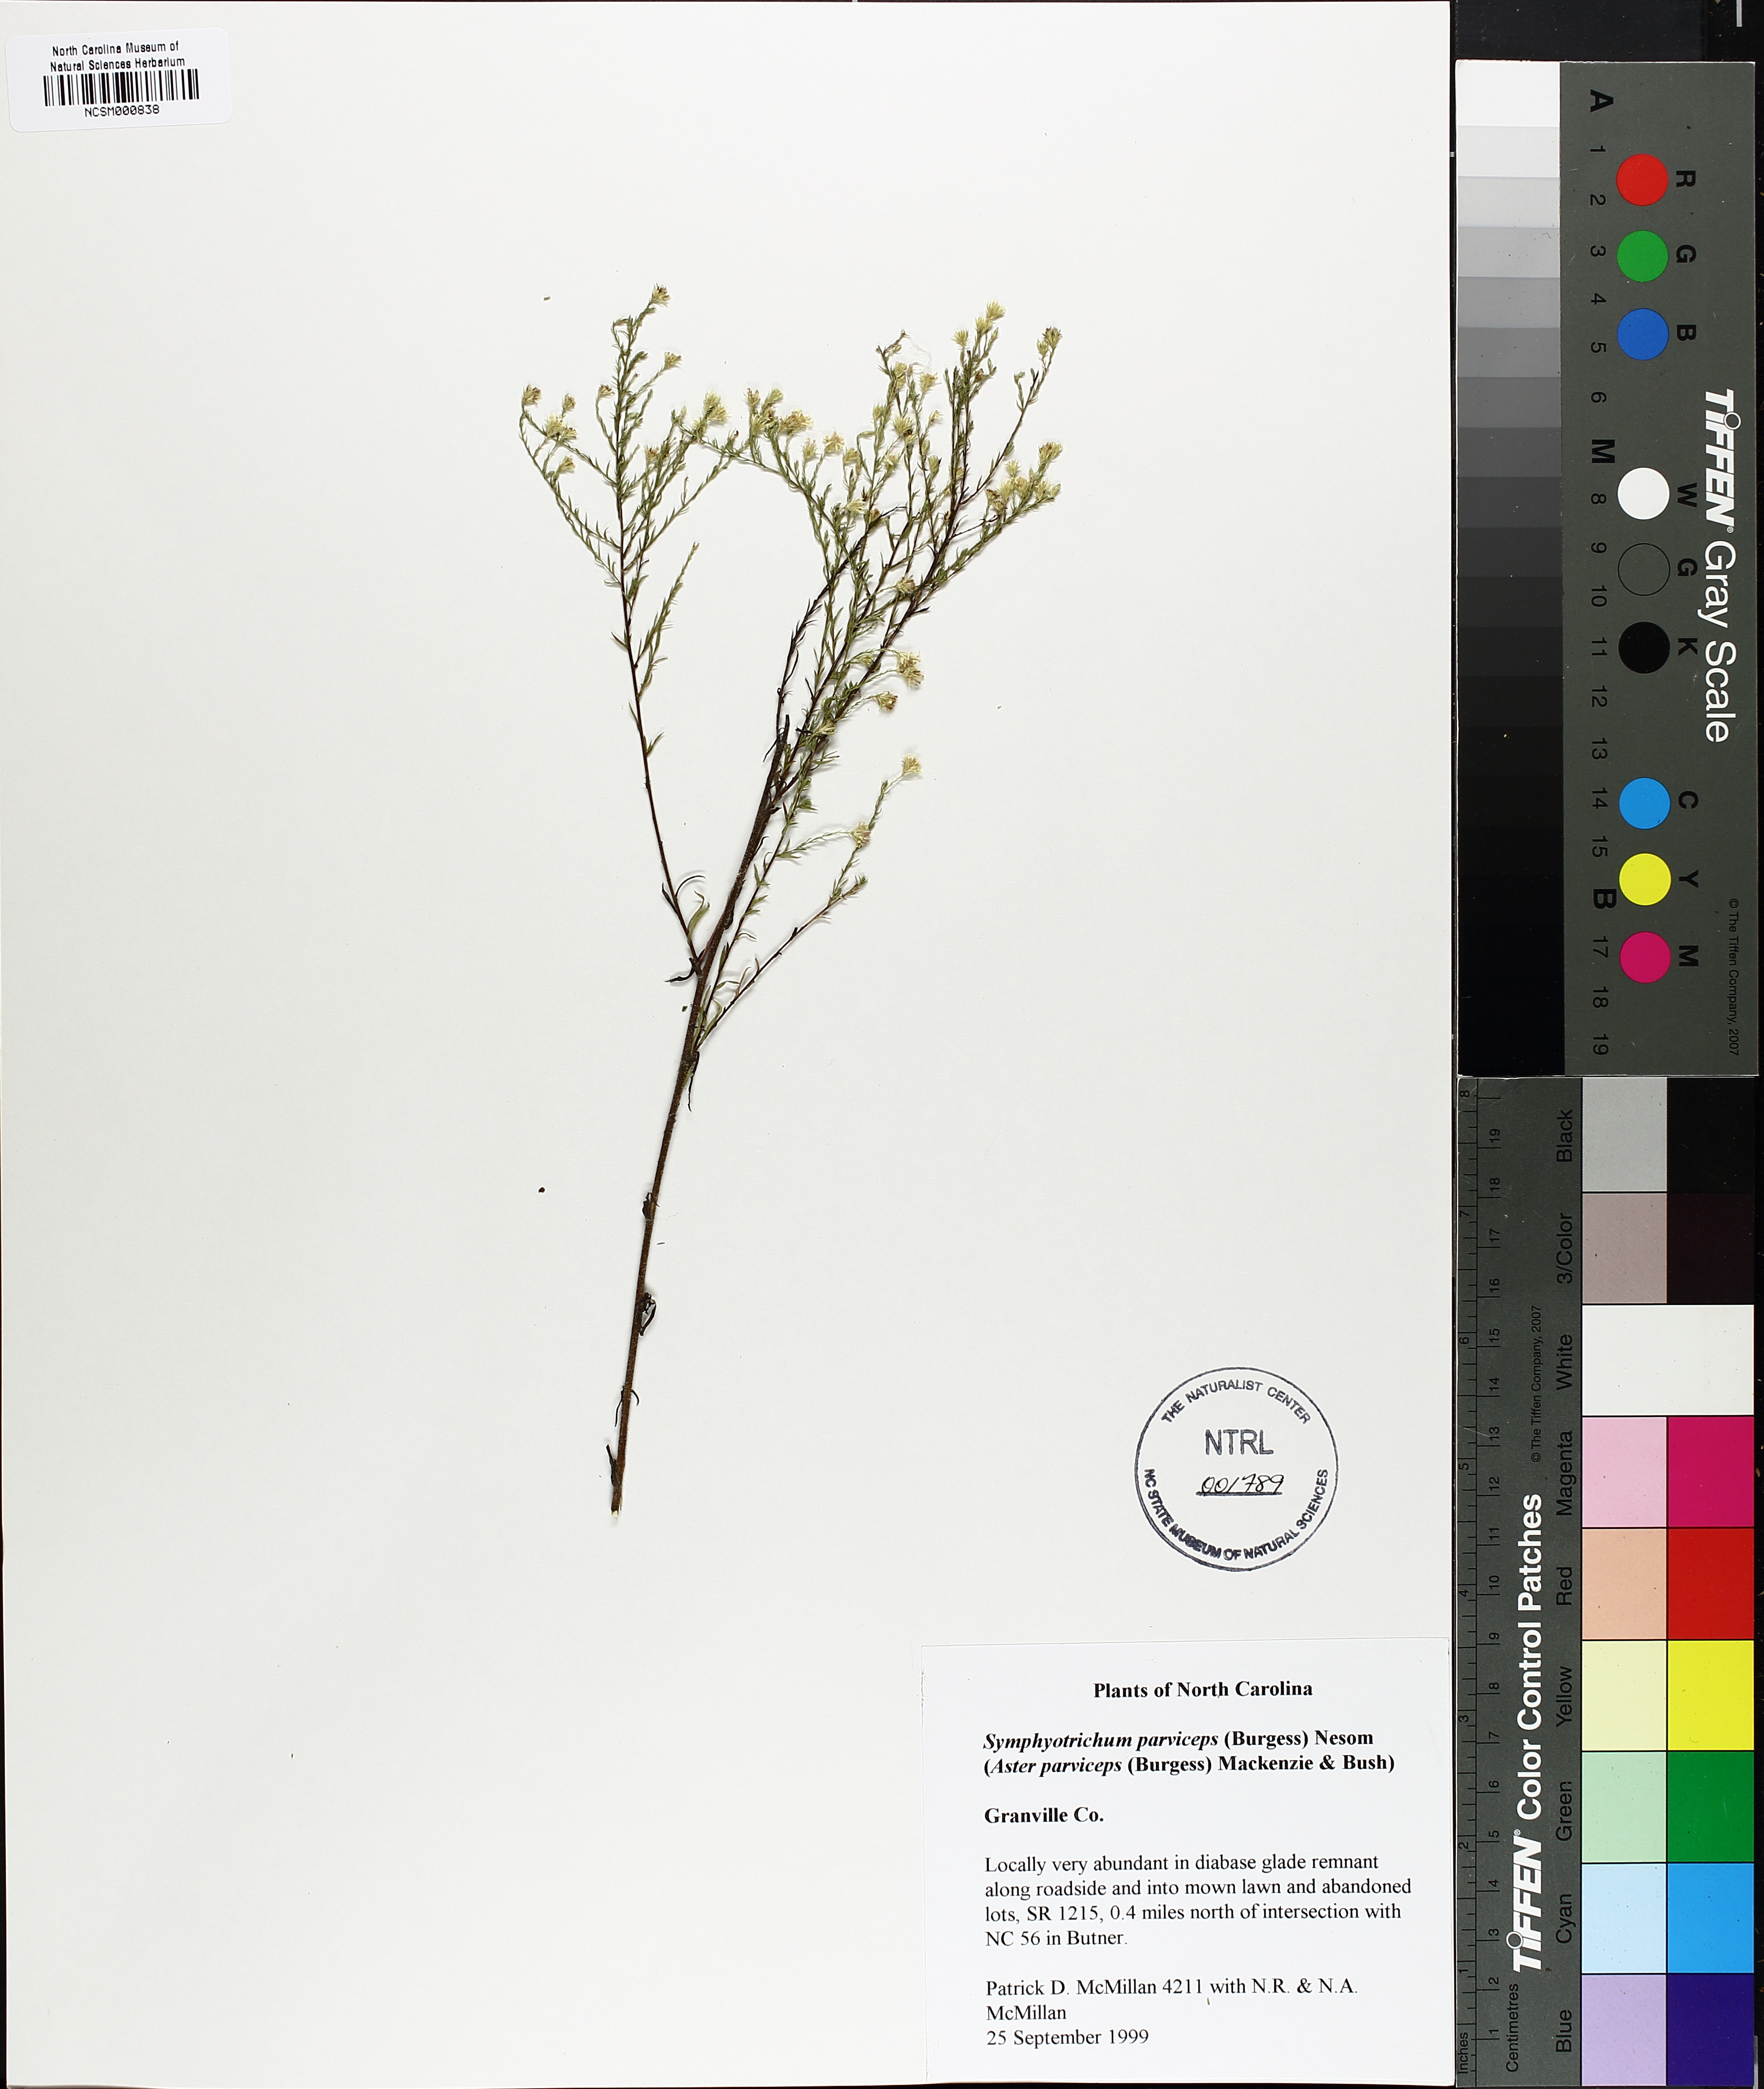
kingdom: Plantae
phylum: Tracheophyta
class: Magnoliopsida
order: Asterales
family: Asteraceae
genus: Symphyotrichum
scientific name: Symphyotrichum parviceps
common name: Small white aster
